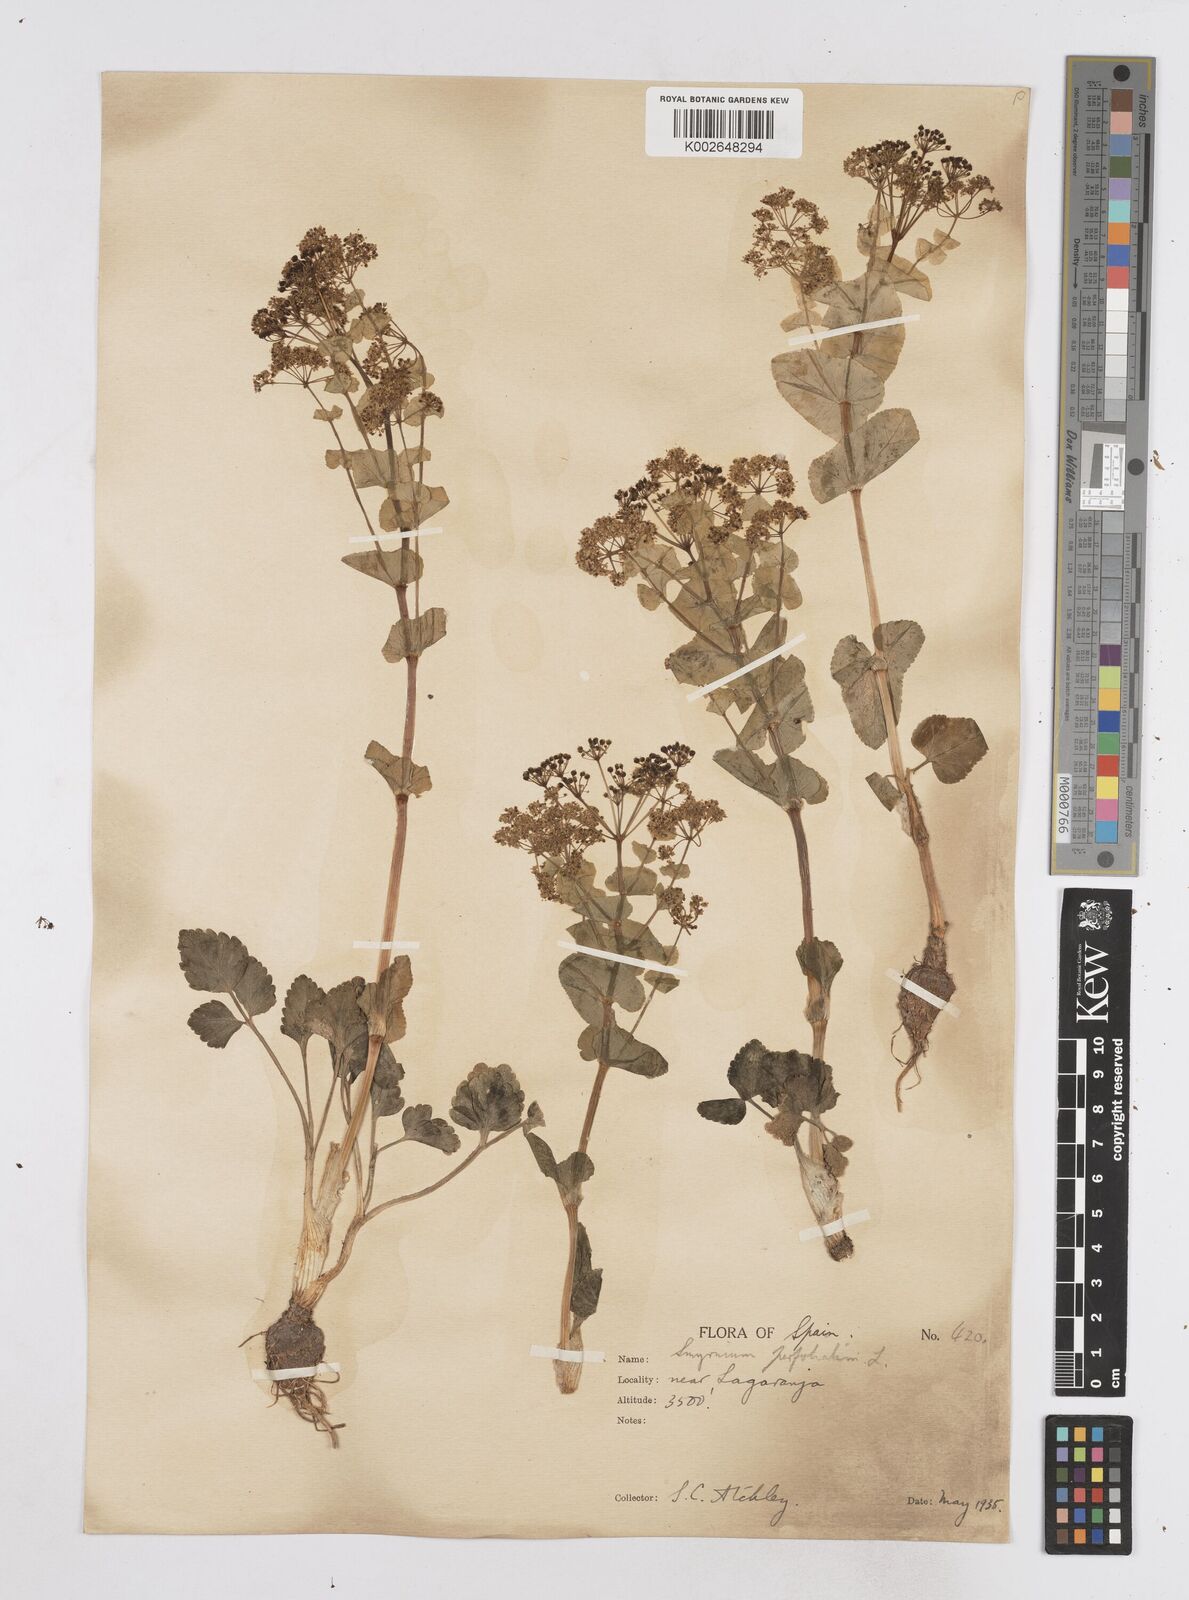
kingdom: Plantae
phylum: Tracheophyta
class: Magnoliopsida
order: Apiales
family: Apiaceae
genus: Smyrnium
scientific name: Smyrnium perfoliatum
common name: Perfoliate alexanders
